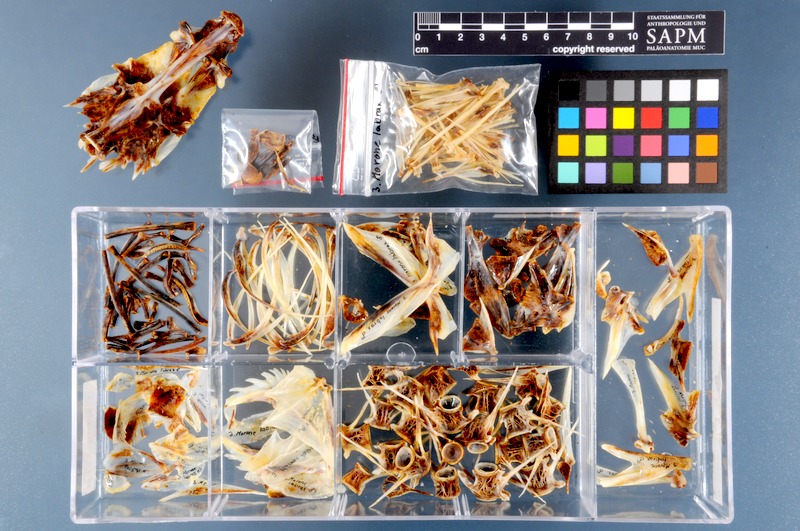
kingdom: Animalia
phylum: Chordata
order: Perciformes
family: Moronidae
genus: Dicentrarchus
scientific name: Dicentrarchus labrax
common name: European seabass
